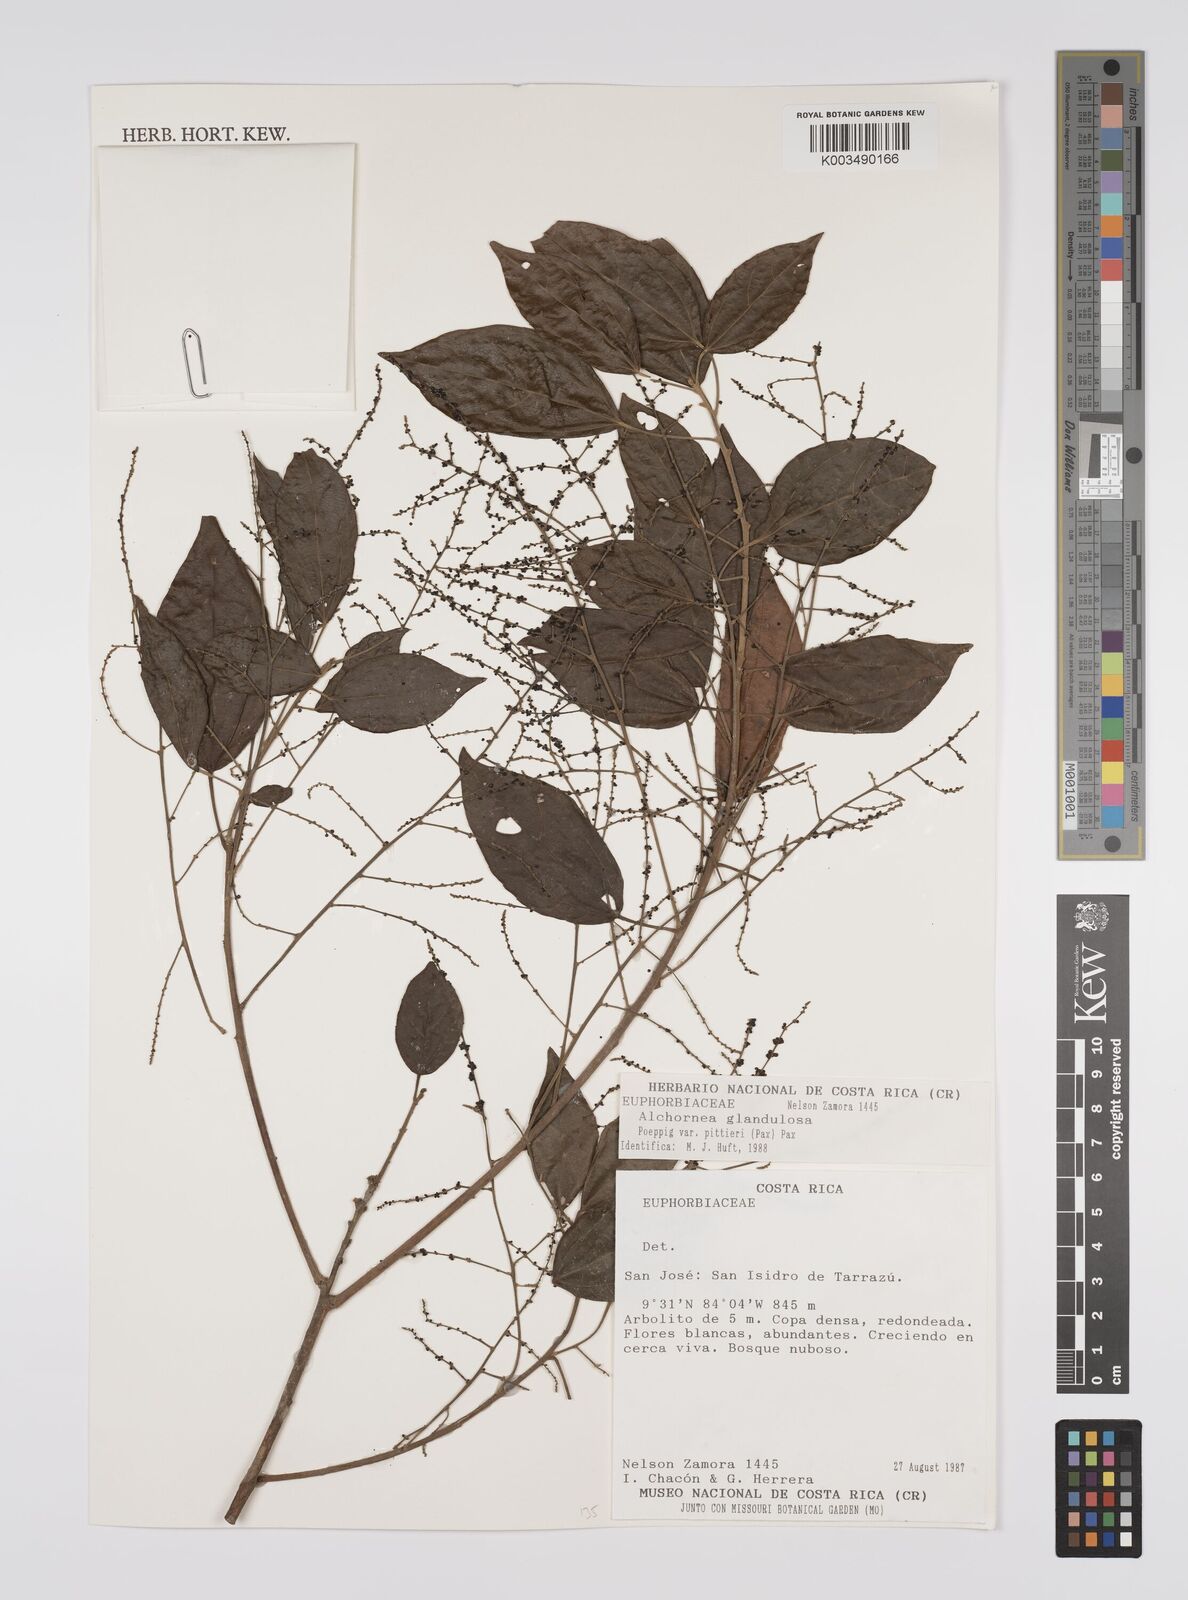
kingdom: Plantae
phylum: Tracheophyta
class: Magnoliopsida
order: Malpighiales
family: Euphorbiaceae
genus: Alchornea
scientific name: Alchornea glandulosa
